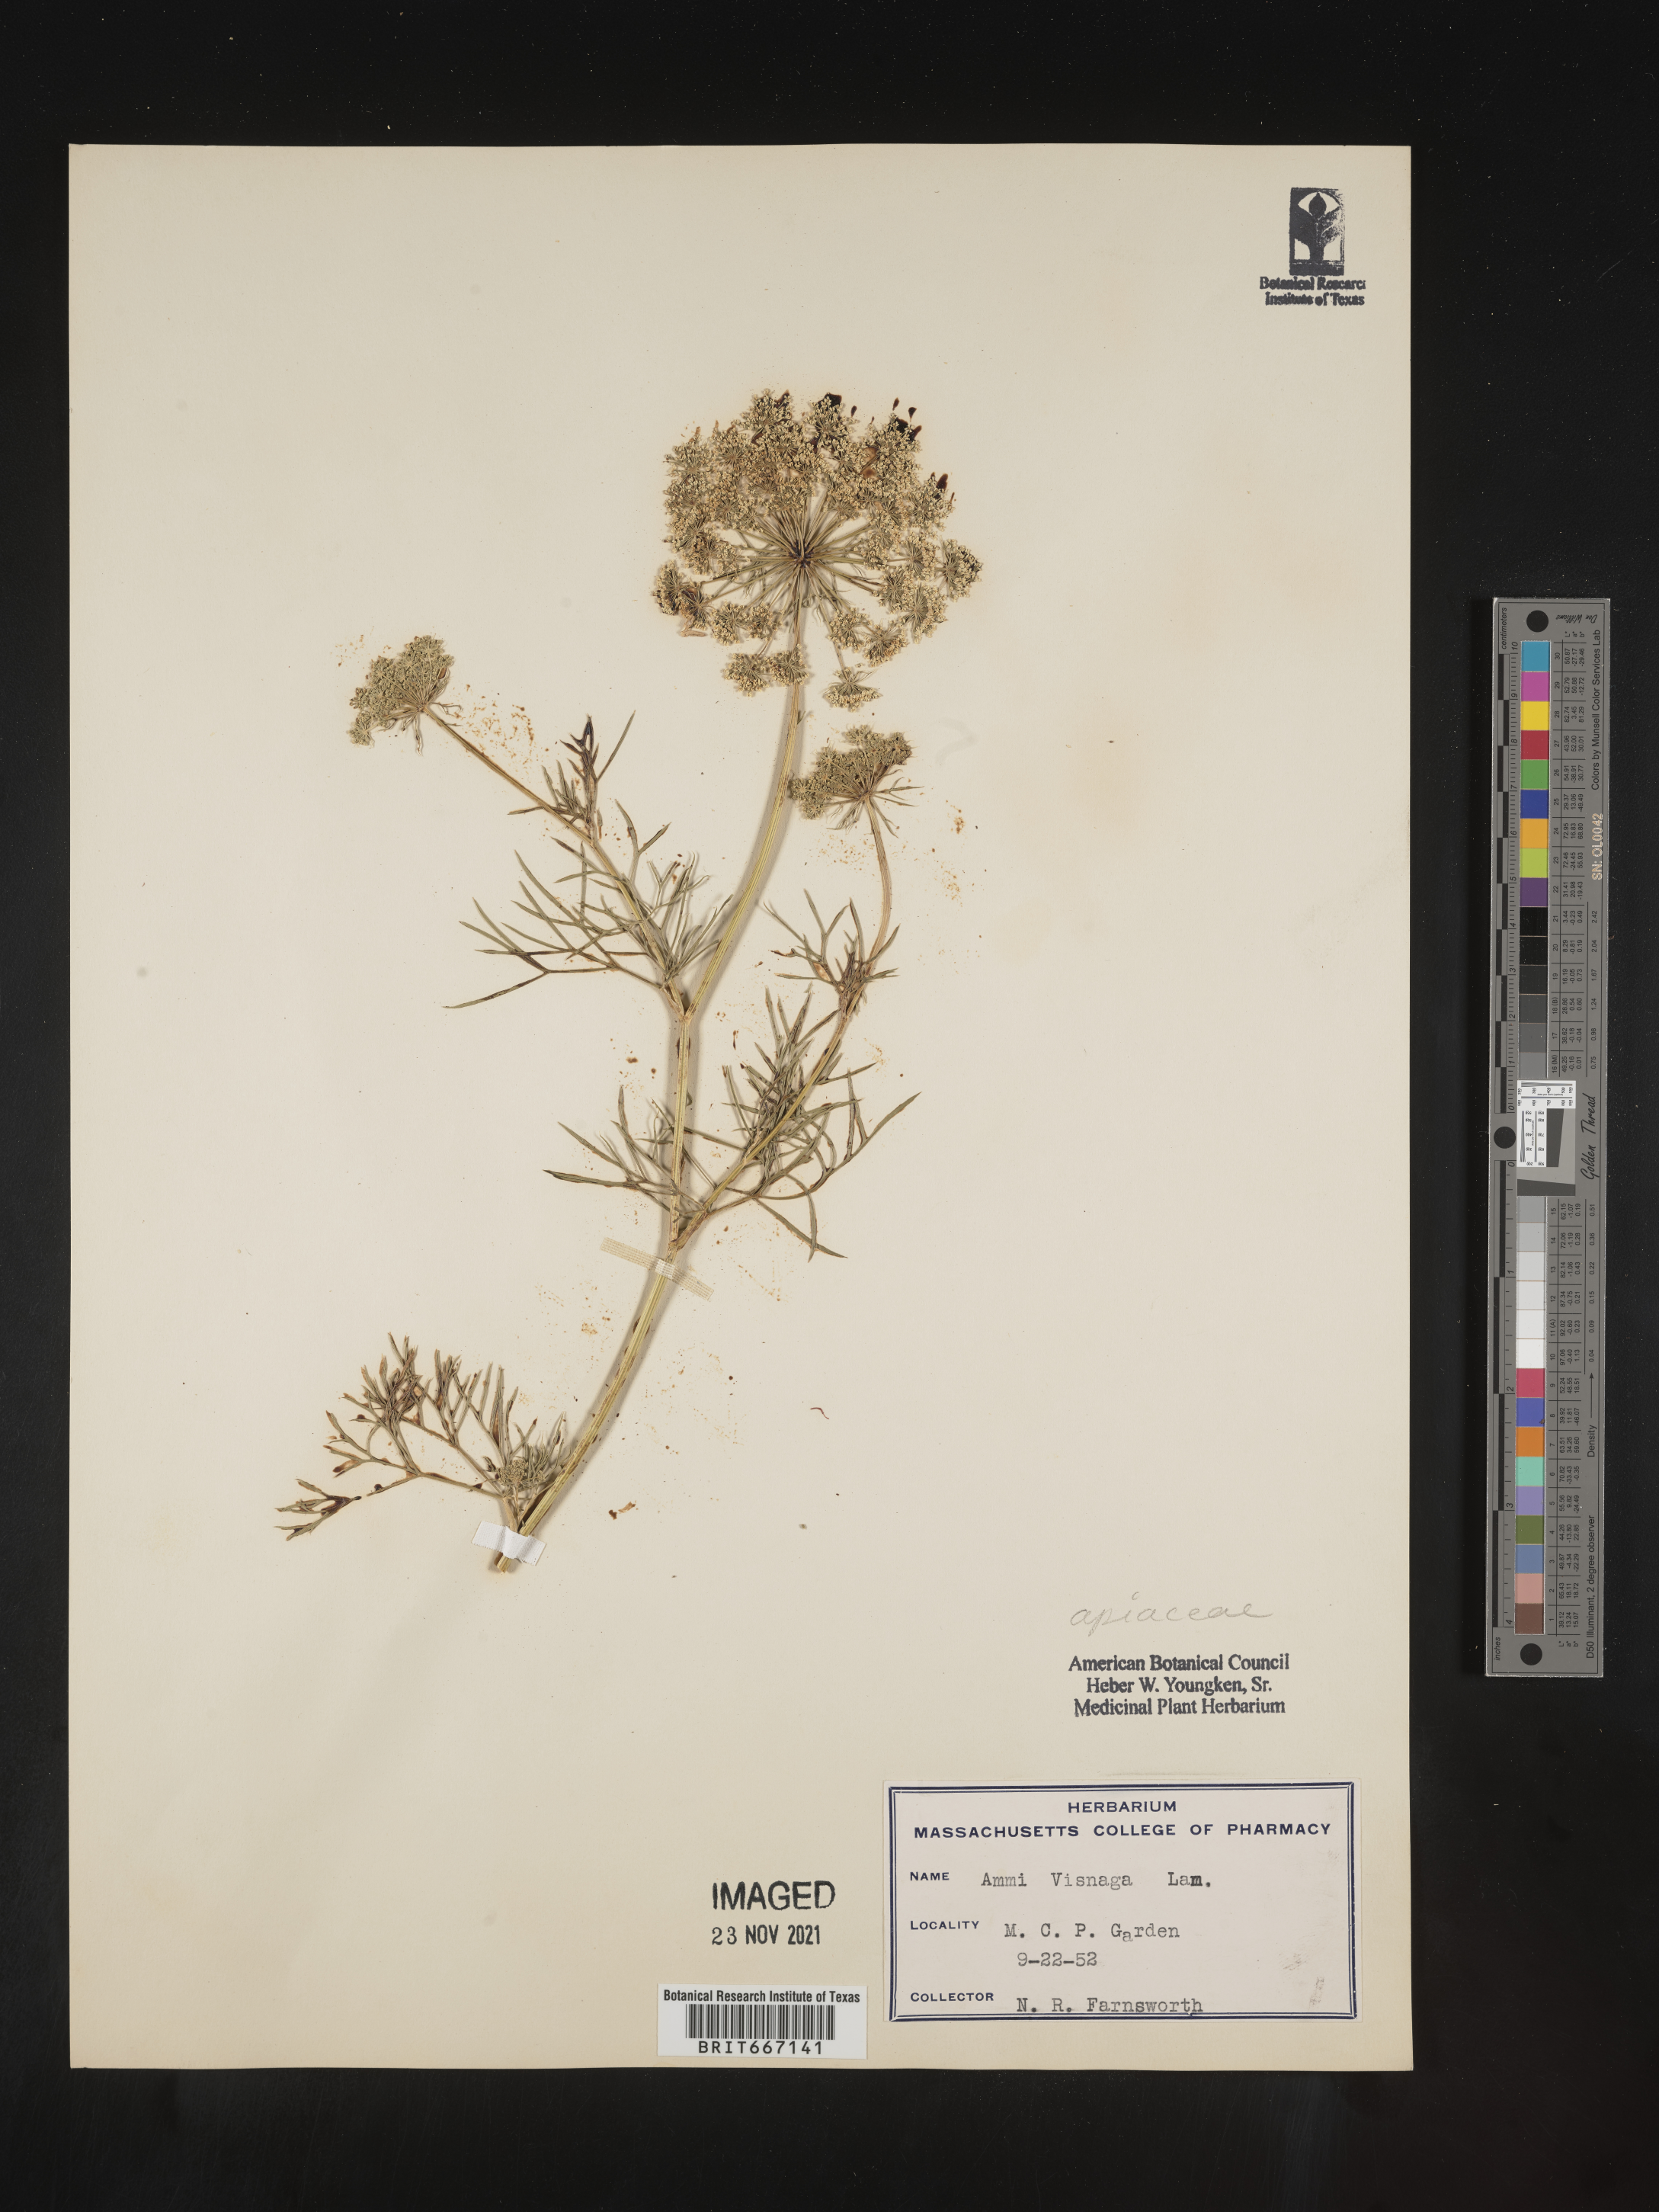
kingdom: Plantae
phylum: Tracheophyta
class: Magnoliopsida
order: Apiales
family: Apiaceae
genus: Ammi
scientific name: Ammi
